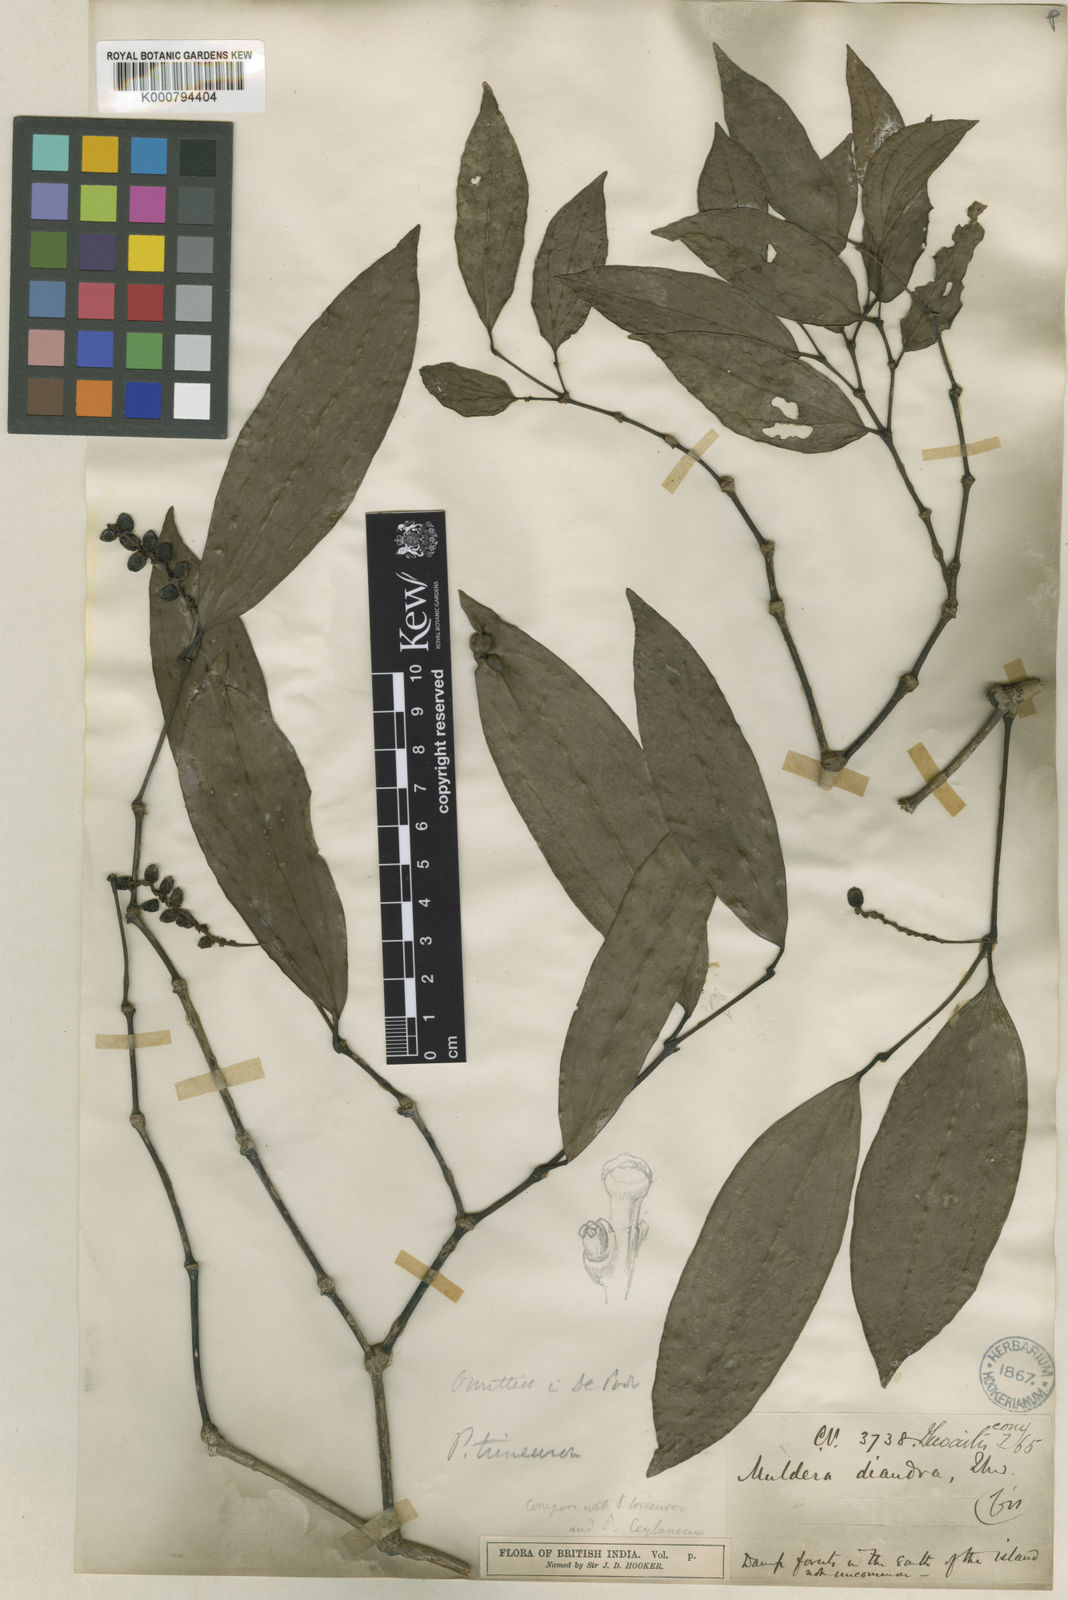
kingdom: Plantae
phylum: Tracheophyta
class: Magnoliopsida
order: Piperales
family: Piperaceae
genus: Piper
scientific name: Piper trineuron
